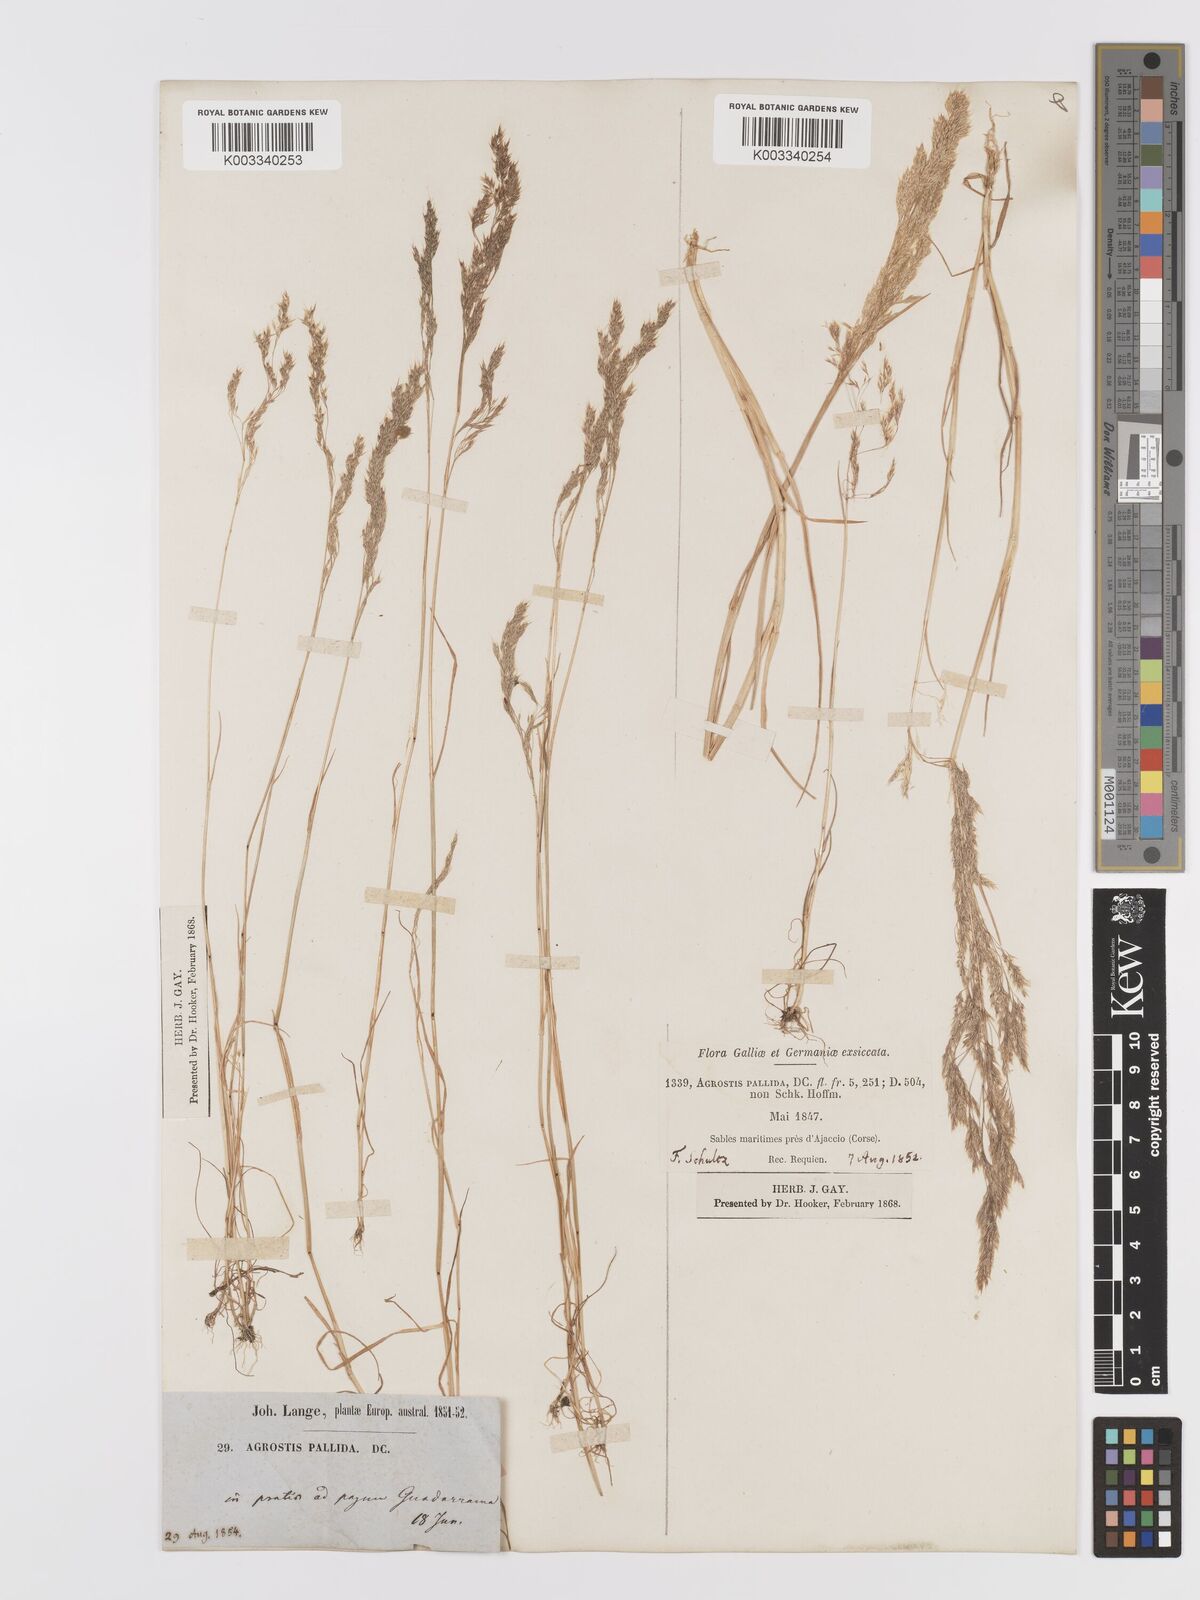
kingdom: Plantae
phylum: Tracheophyta
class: Liliopsida
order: Poales
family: Poaceae
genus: Agrostis
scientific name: Agrostis pourretii
